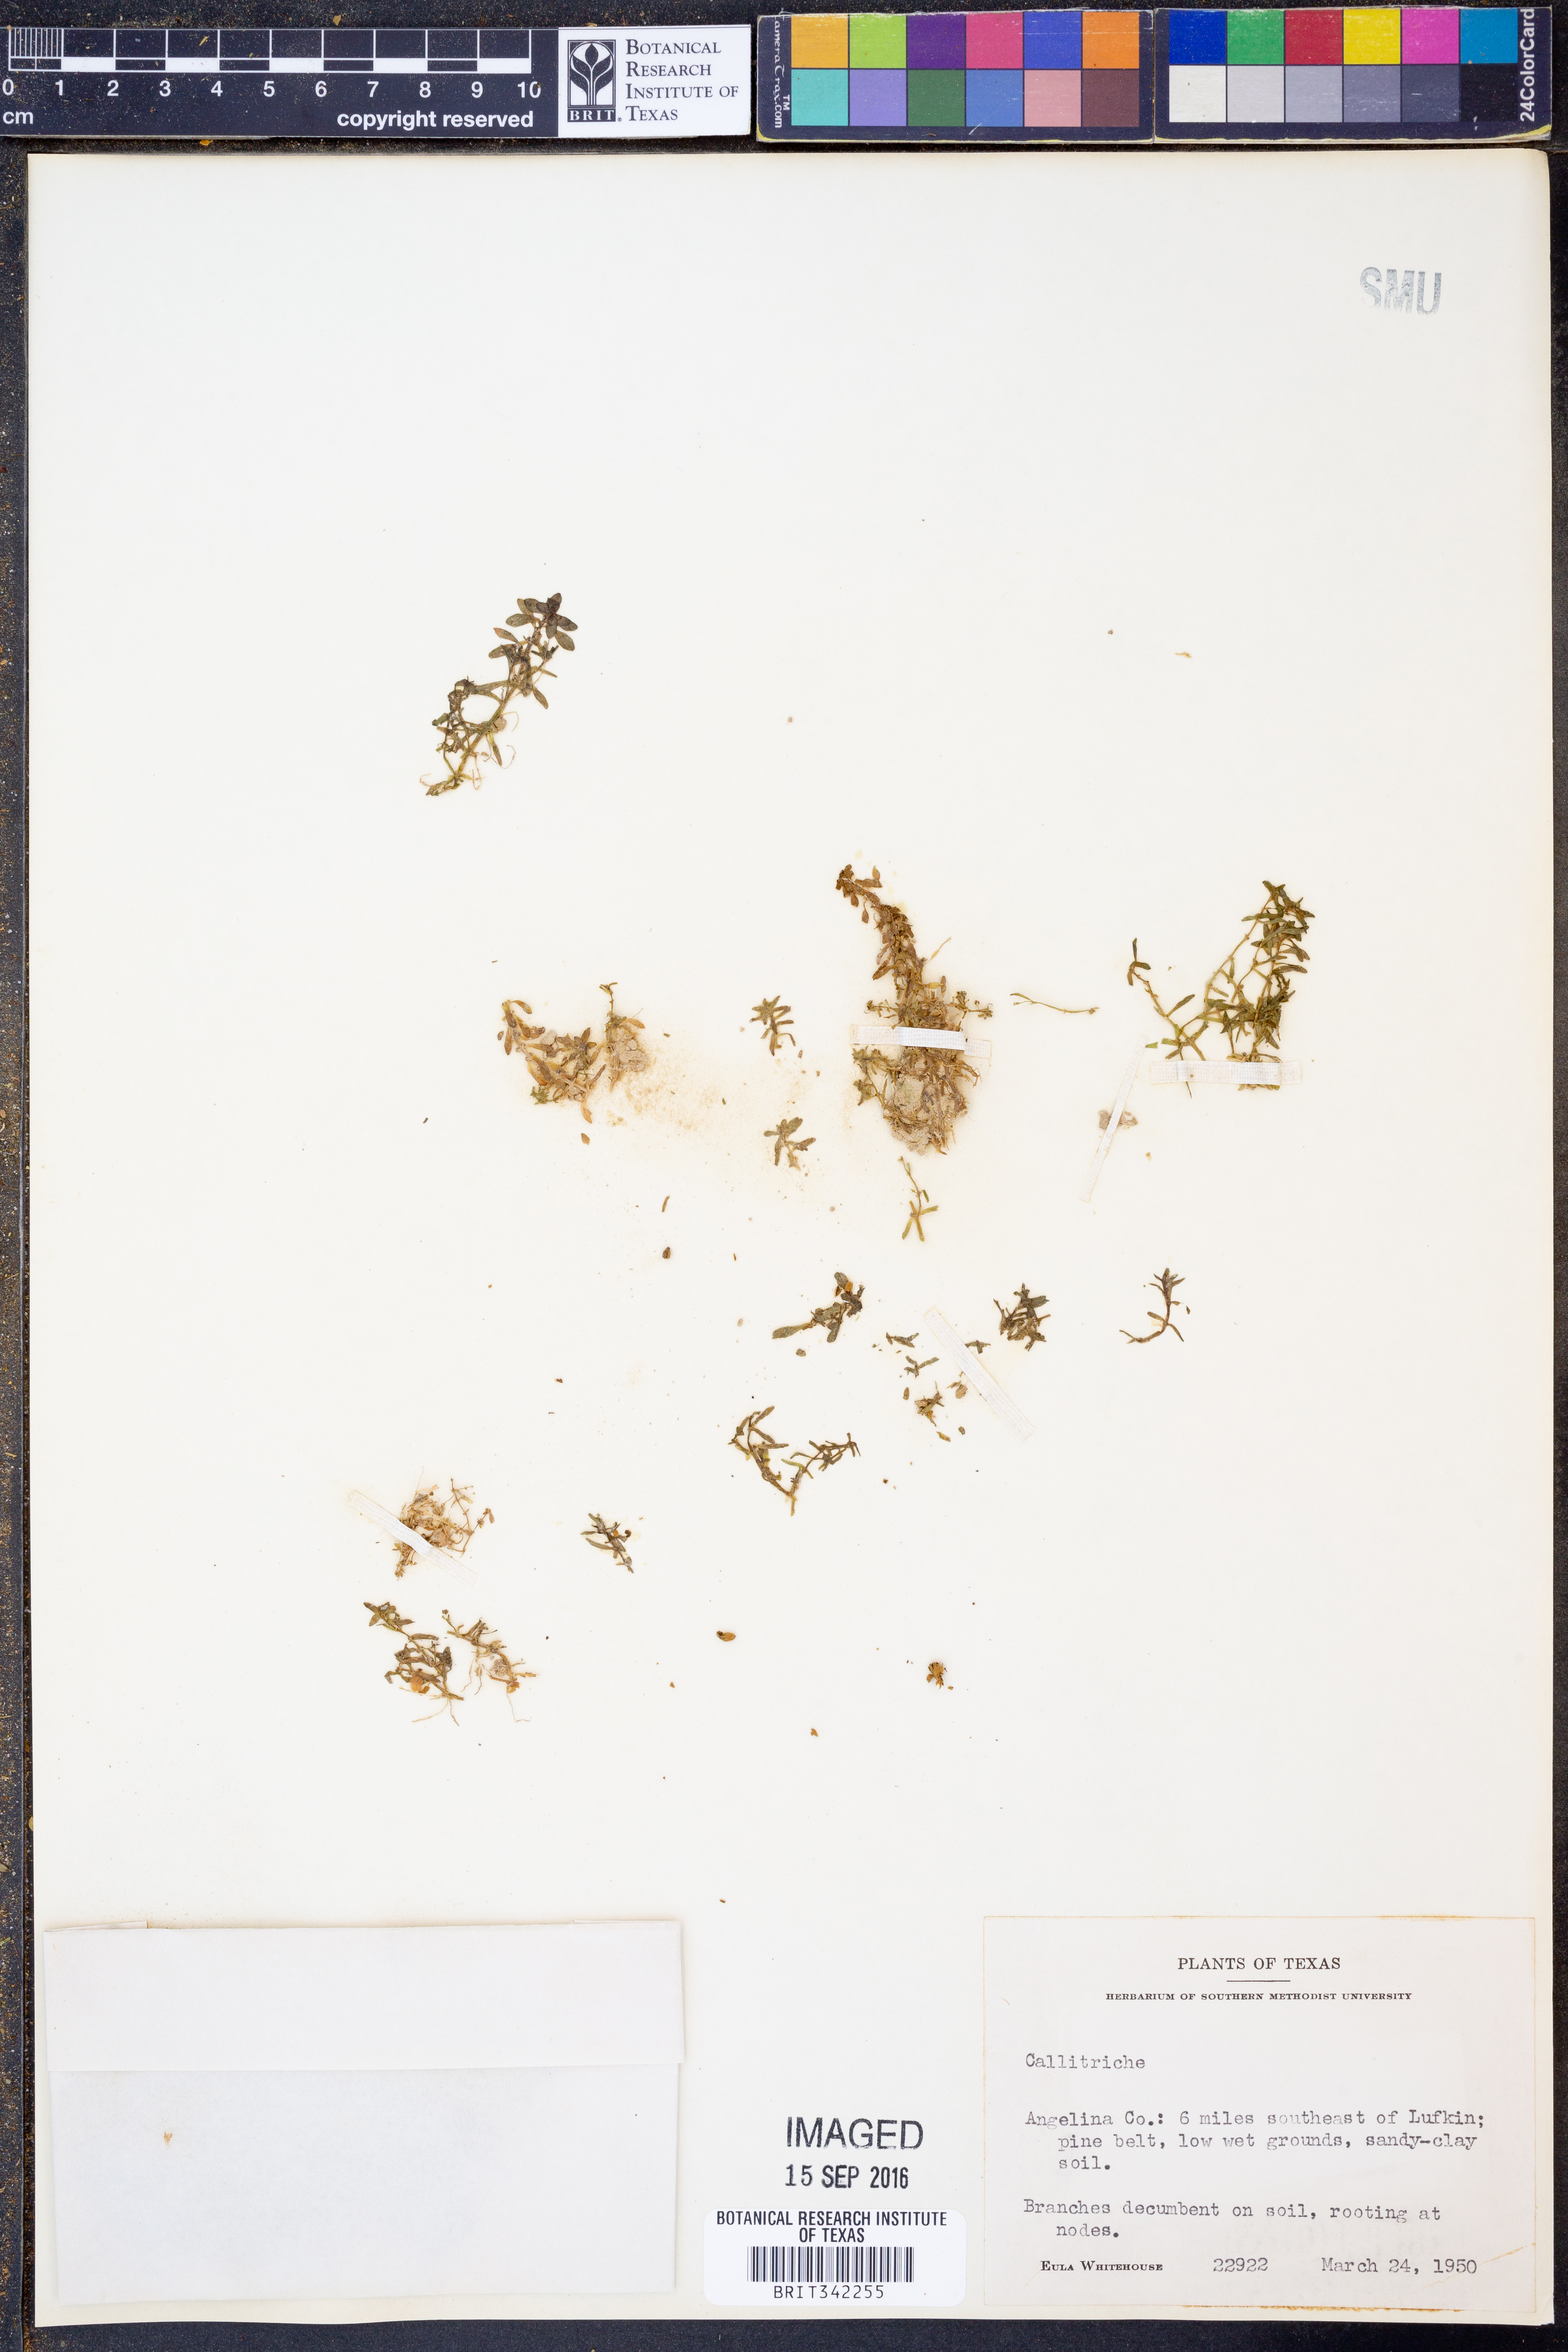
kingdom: Plantae
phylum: Tracheophyta
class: Magnoliopsida
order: Lamiales
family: Plantaginaceae
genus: Callitriche
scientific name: Callitriche
